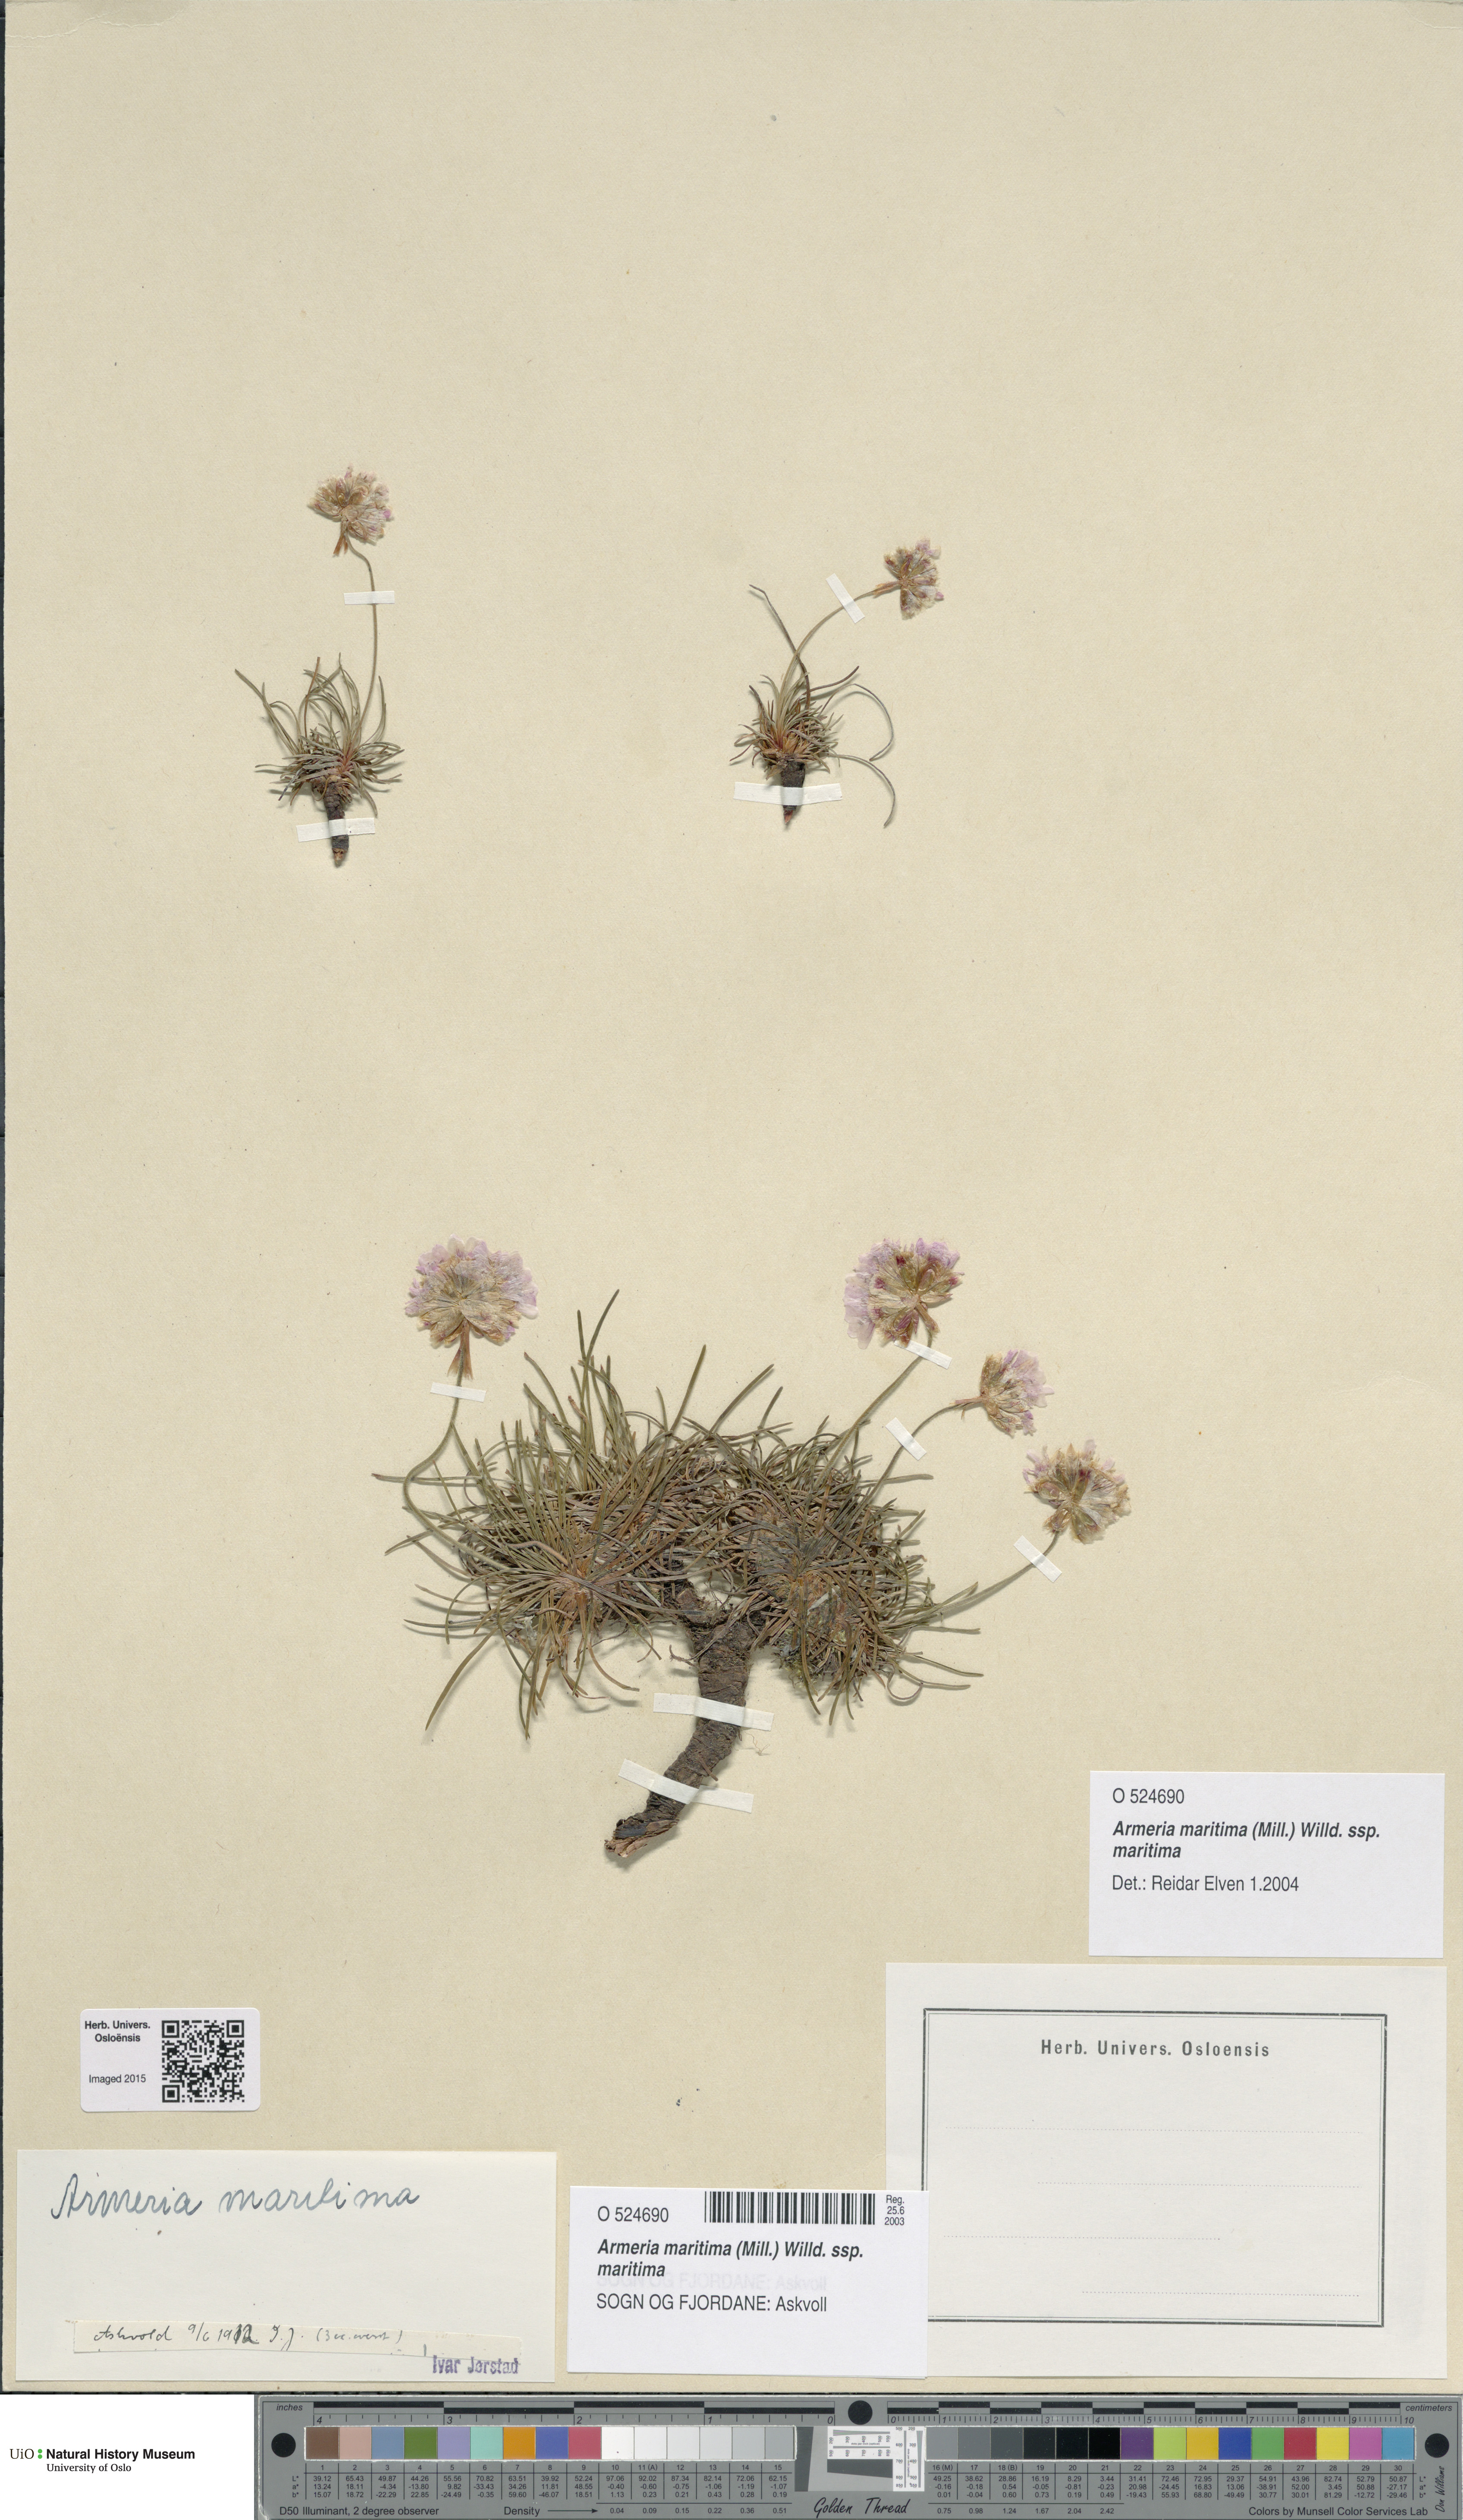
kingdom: Plantae
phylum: Tracheophyta
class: Magnoliopsida
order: Caryophyllales
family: Plumbaginaceae
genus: Armeria
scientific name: Armeria maritima
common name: Thrift
